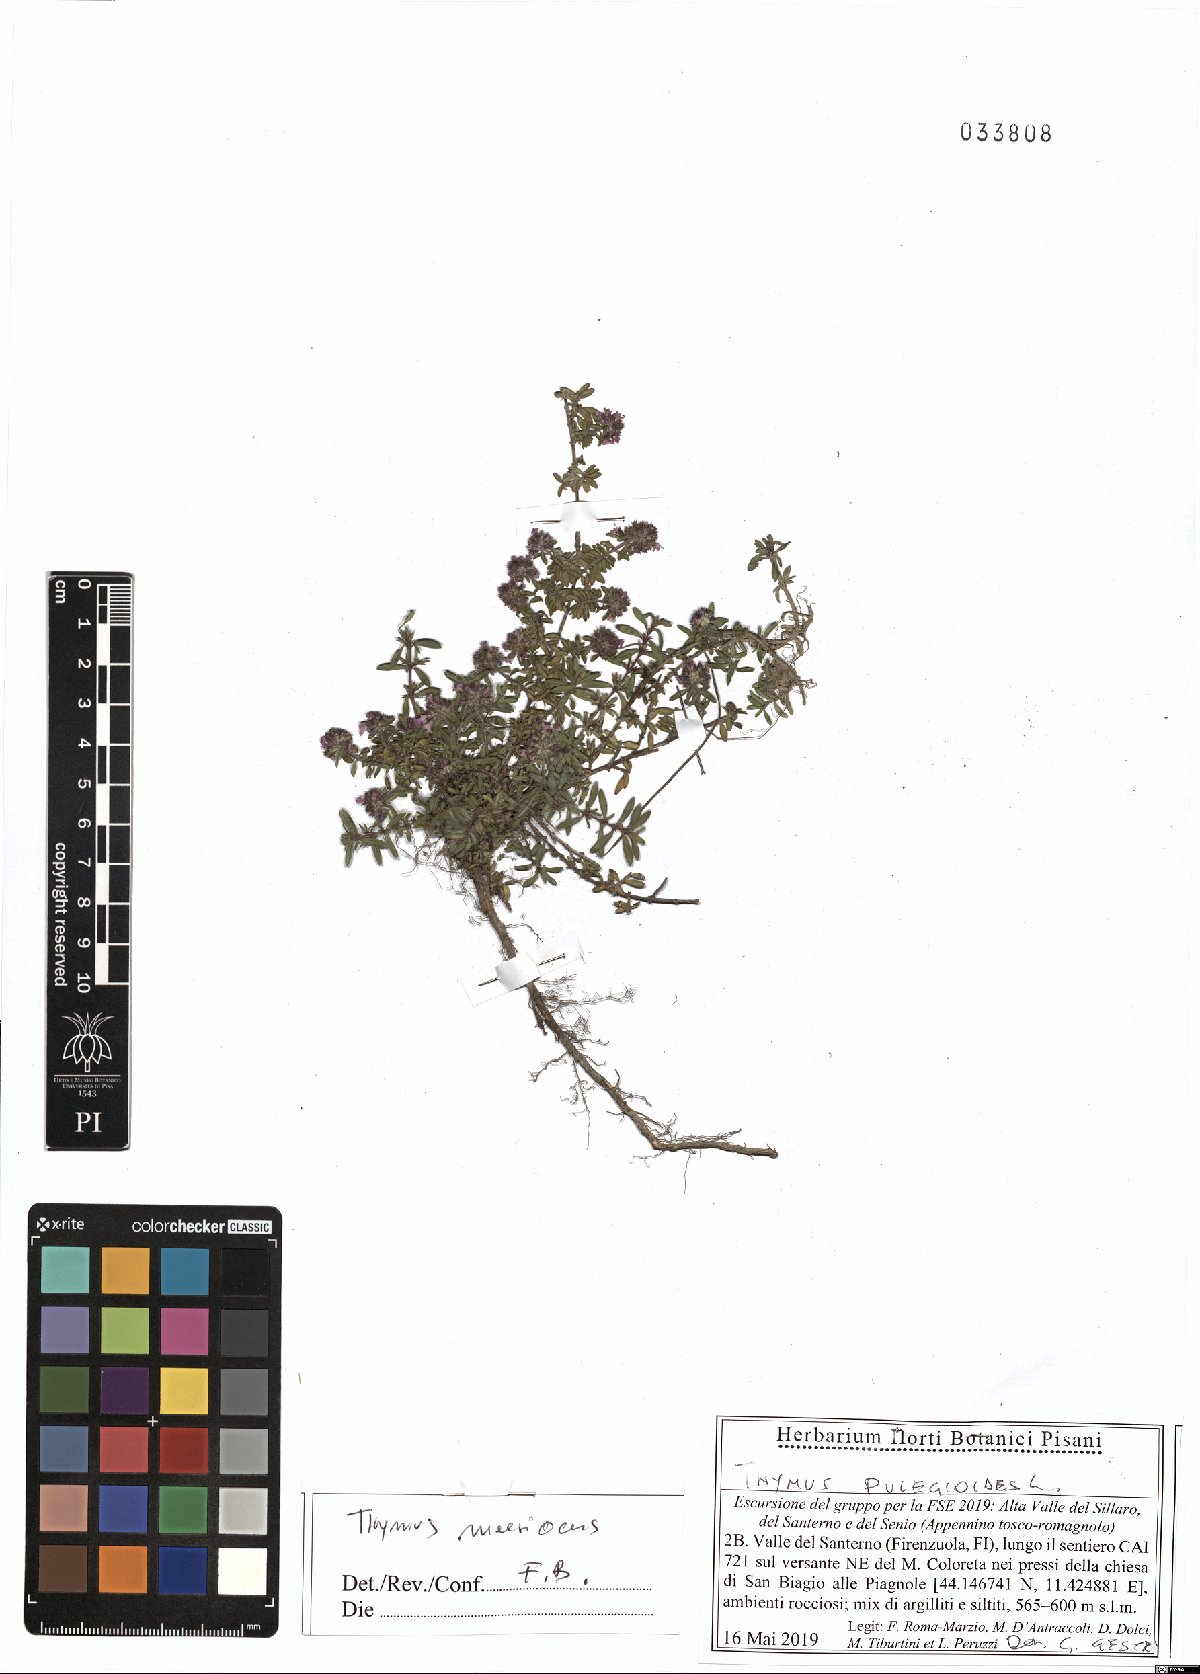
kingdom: Plantae
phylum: Tracheophyta
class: Magnoliopsida
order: Lamiales
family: Lamiaceae
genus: Thymus
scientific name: Thymus longicaulis
